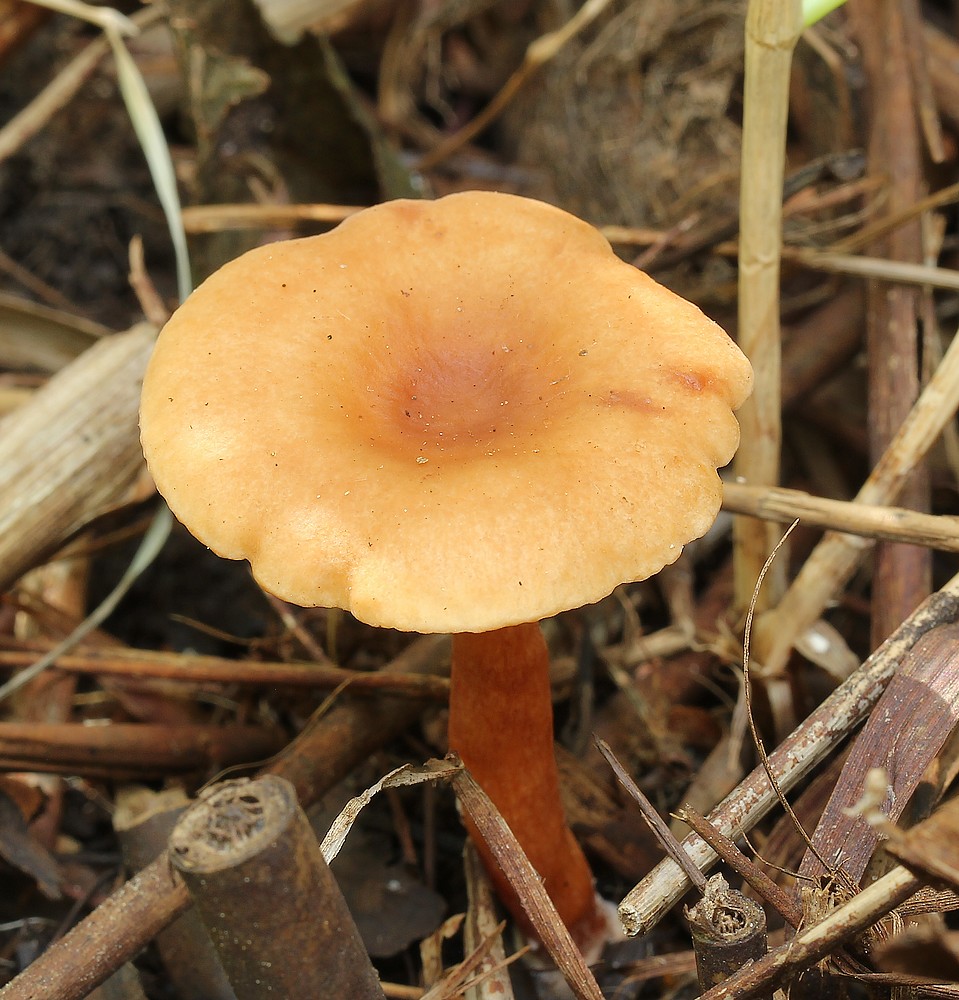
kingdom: Fungi
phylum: Basidiomycota
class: Agaricomycetes
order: Russulales
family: Russulaceae
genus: Lactarius
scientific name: Lactarius lacunarum
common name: sump-mælkehat
